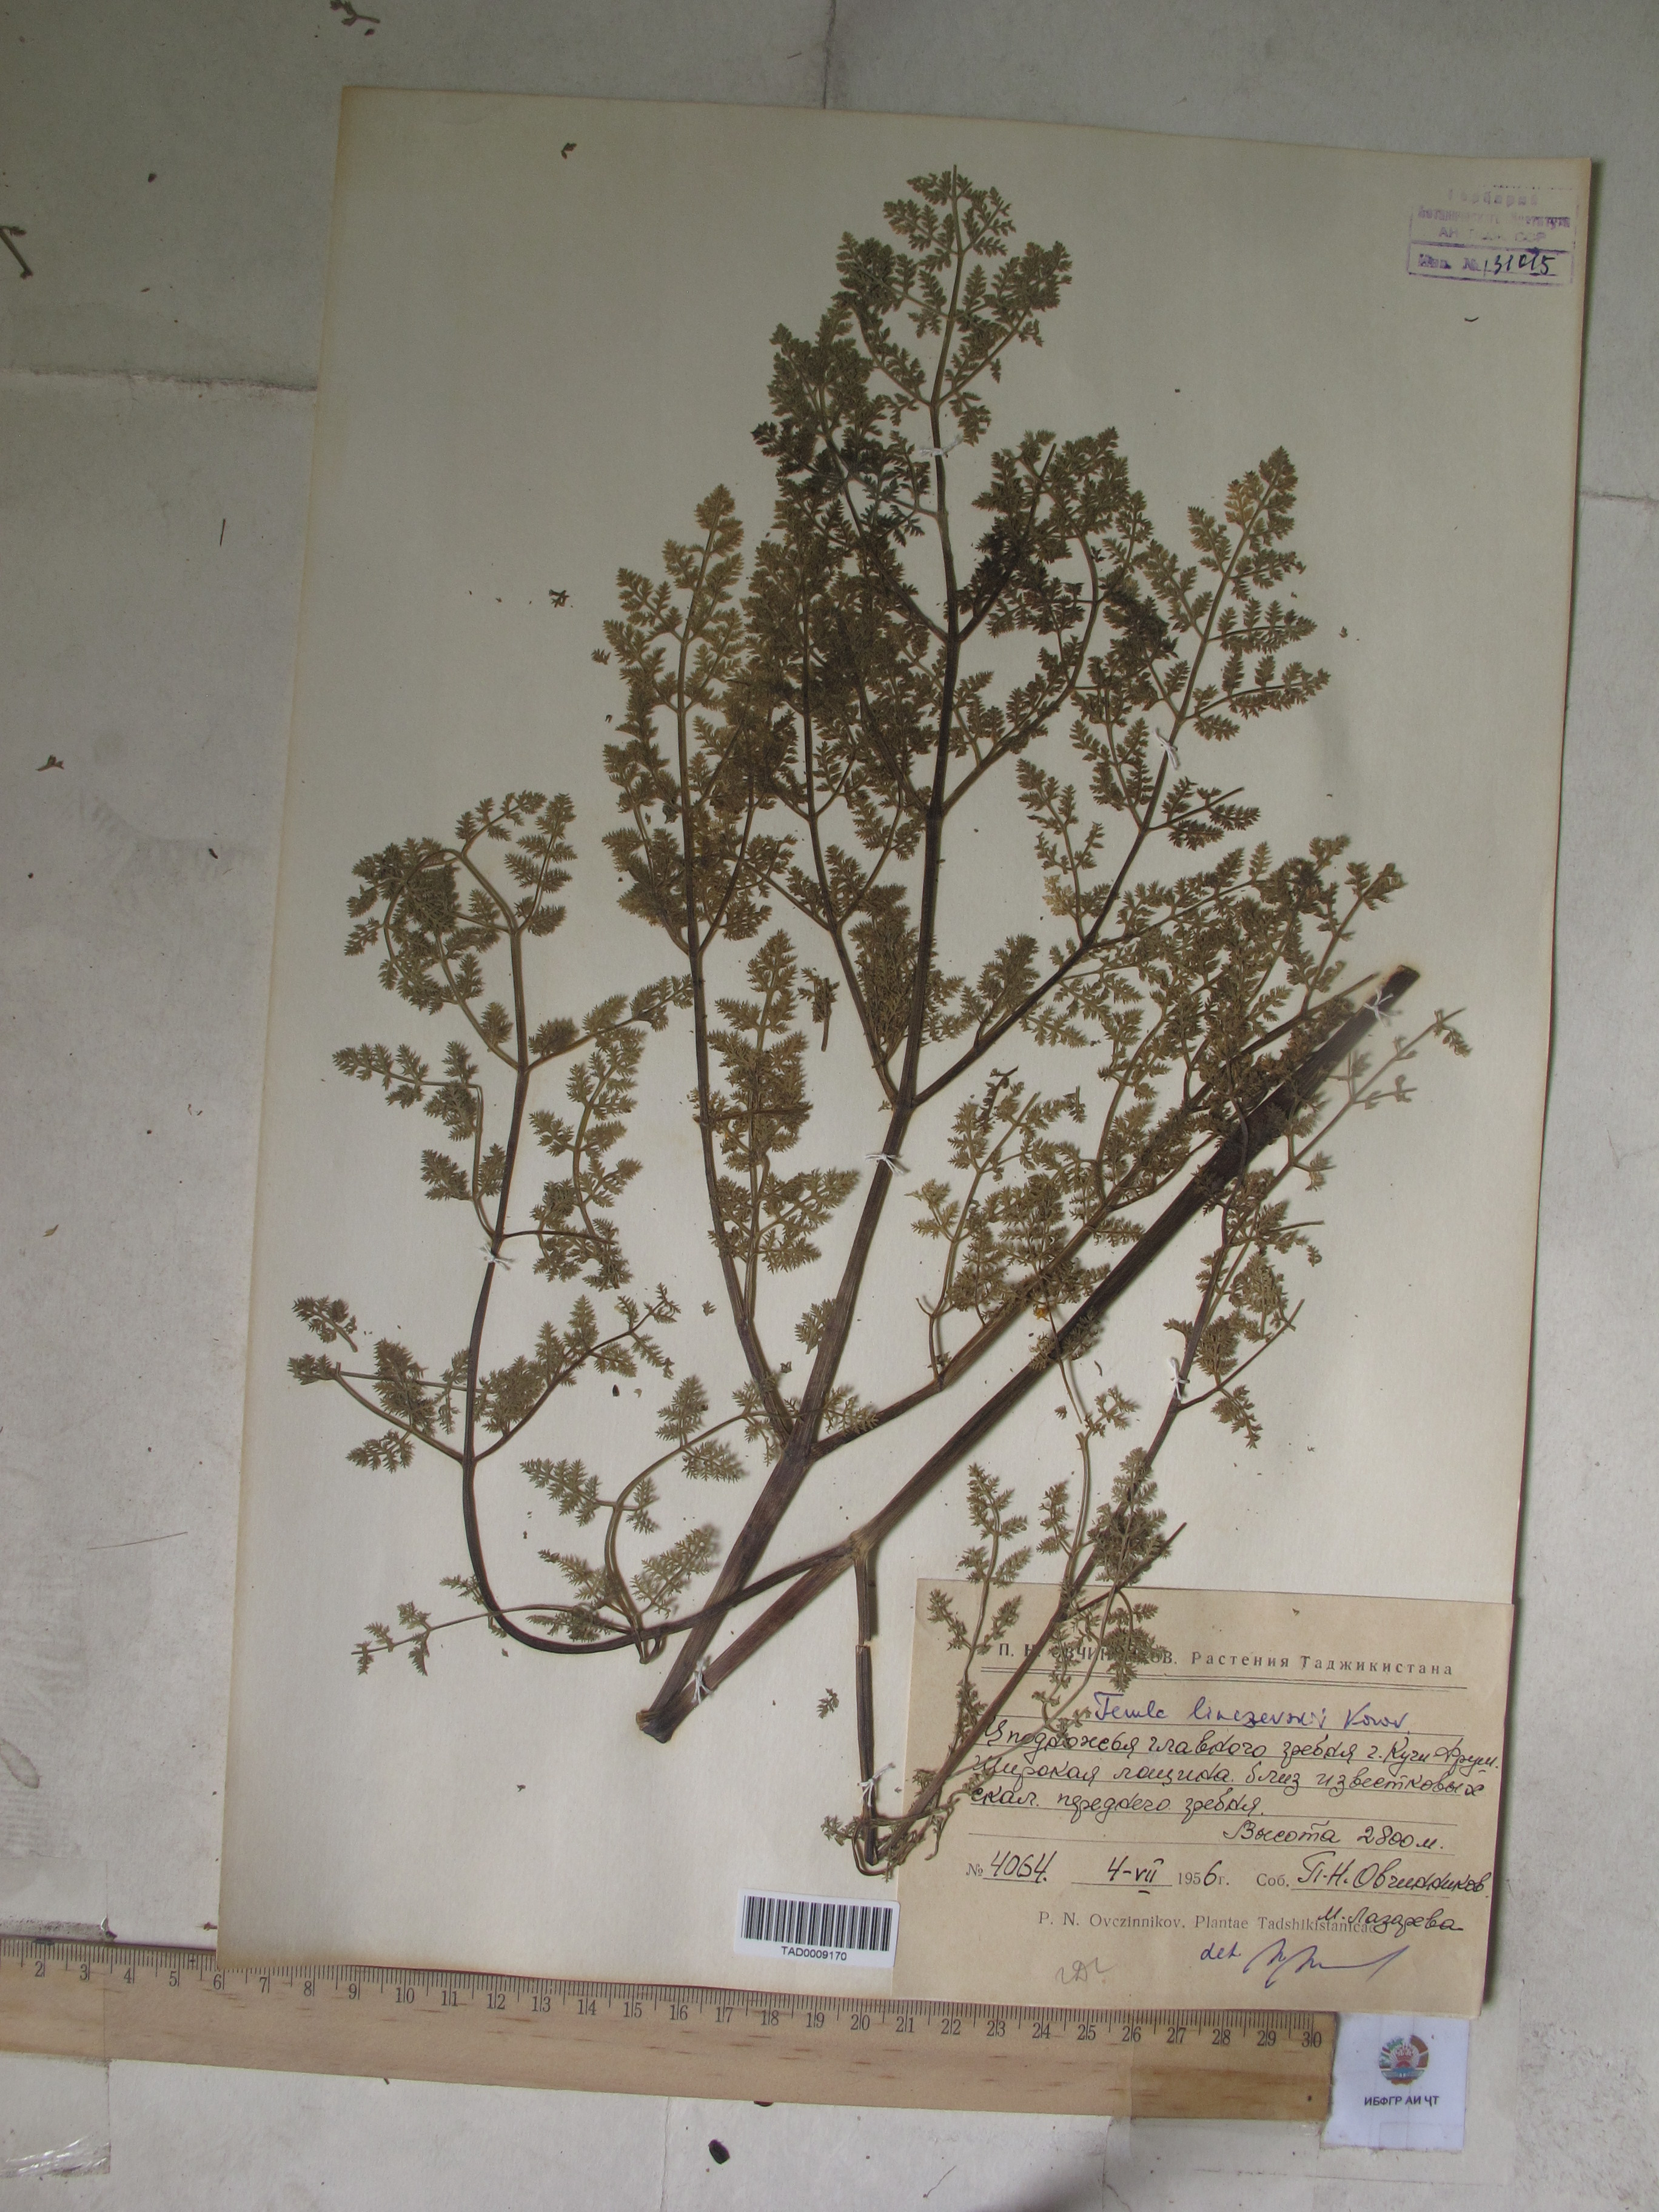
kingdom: Plantae
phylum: Tracheophyta
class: Magnoliopsida
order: Apiales
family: Apiaceae
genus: Ferula
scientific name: Ferula linczevskii
